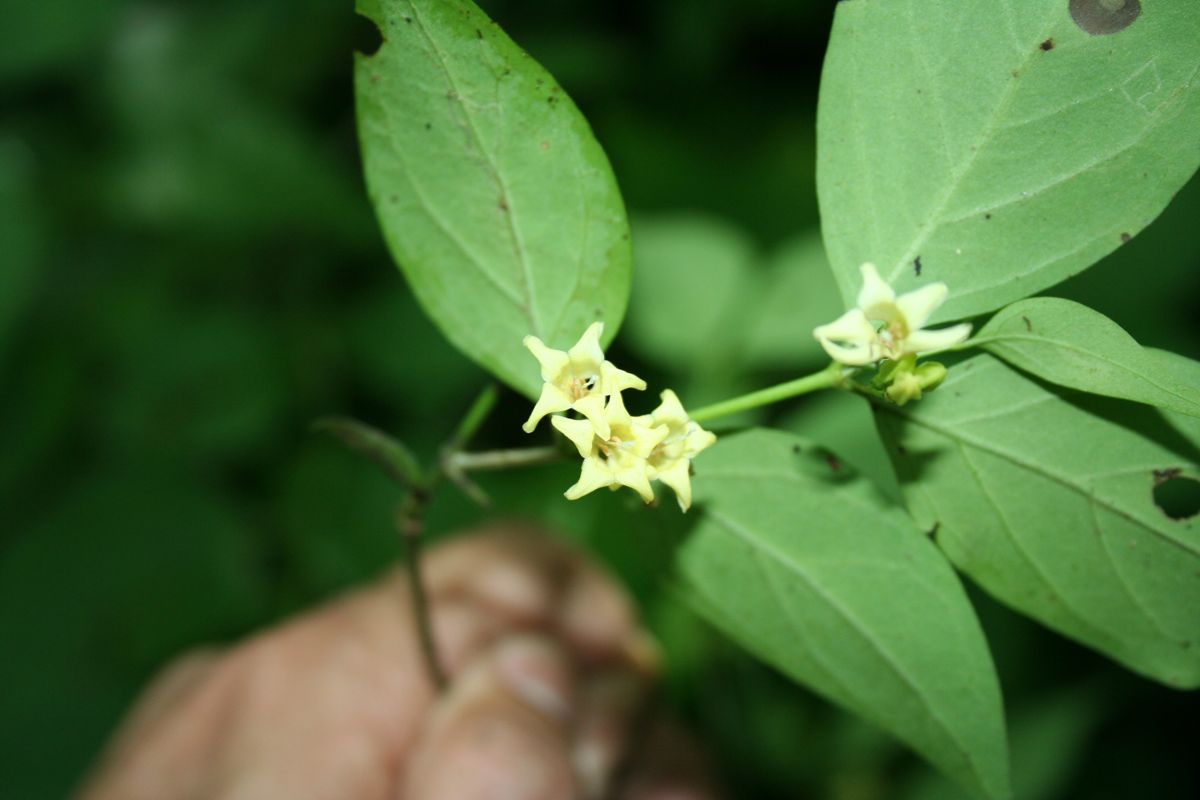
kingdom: Plantae
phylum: Tracheophyta
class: Magnoliopsida
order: Gentianales
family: Rubiaceae
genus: Chiococca
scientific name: Chiococca alba
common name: Snowberry
